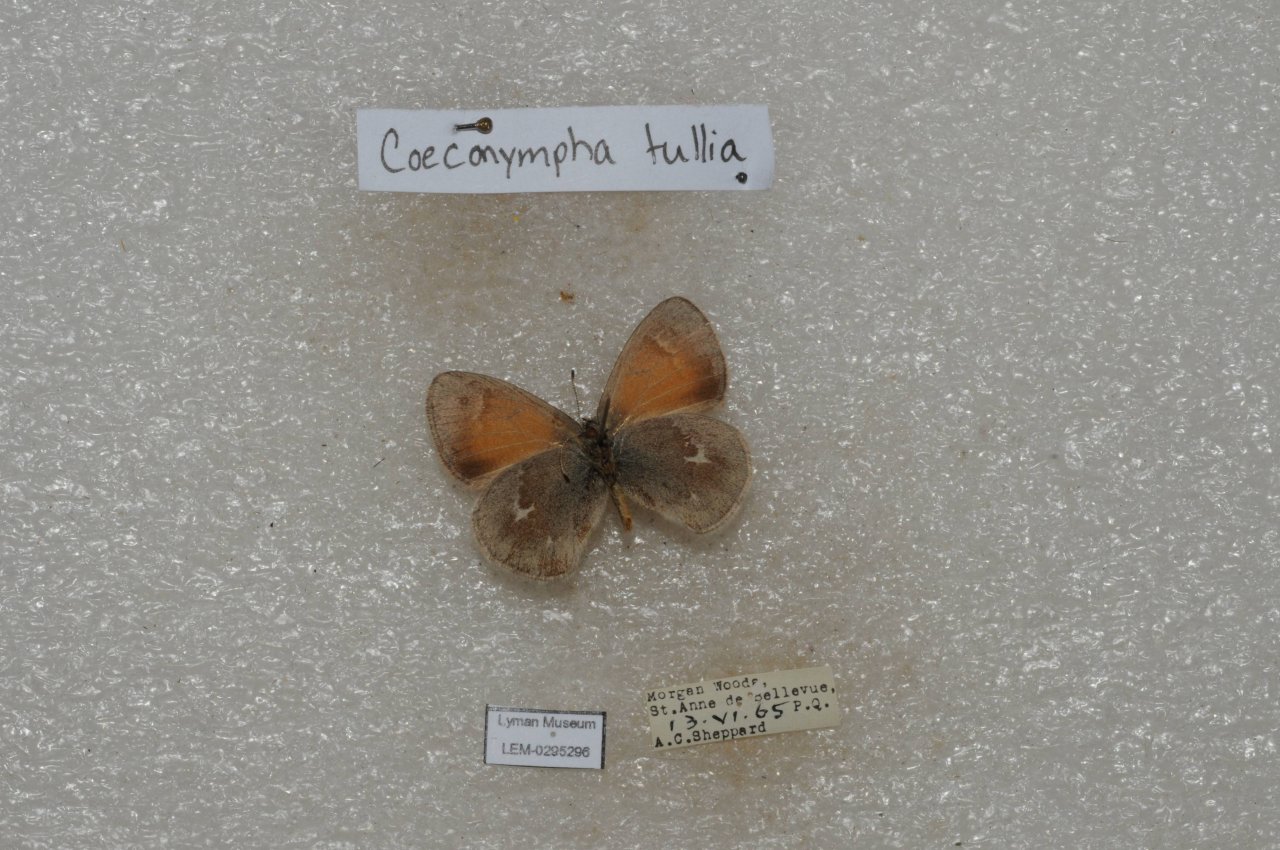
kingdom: Animalia
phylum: Arthropoda
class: Insecta
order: Lepidoptera
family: Nymphalidae
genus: Coenonympha
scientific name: Coenonympha tullia
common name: Large Heath
